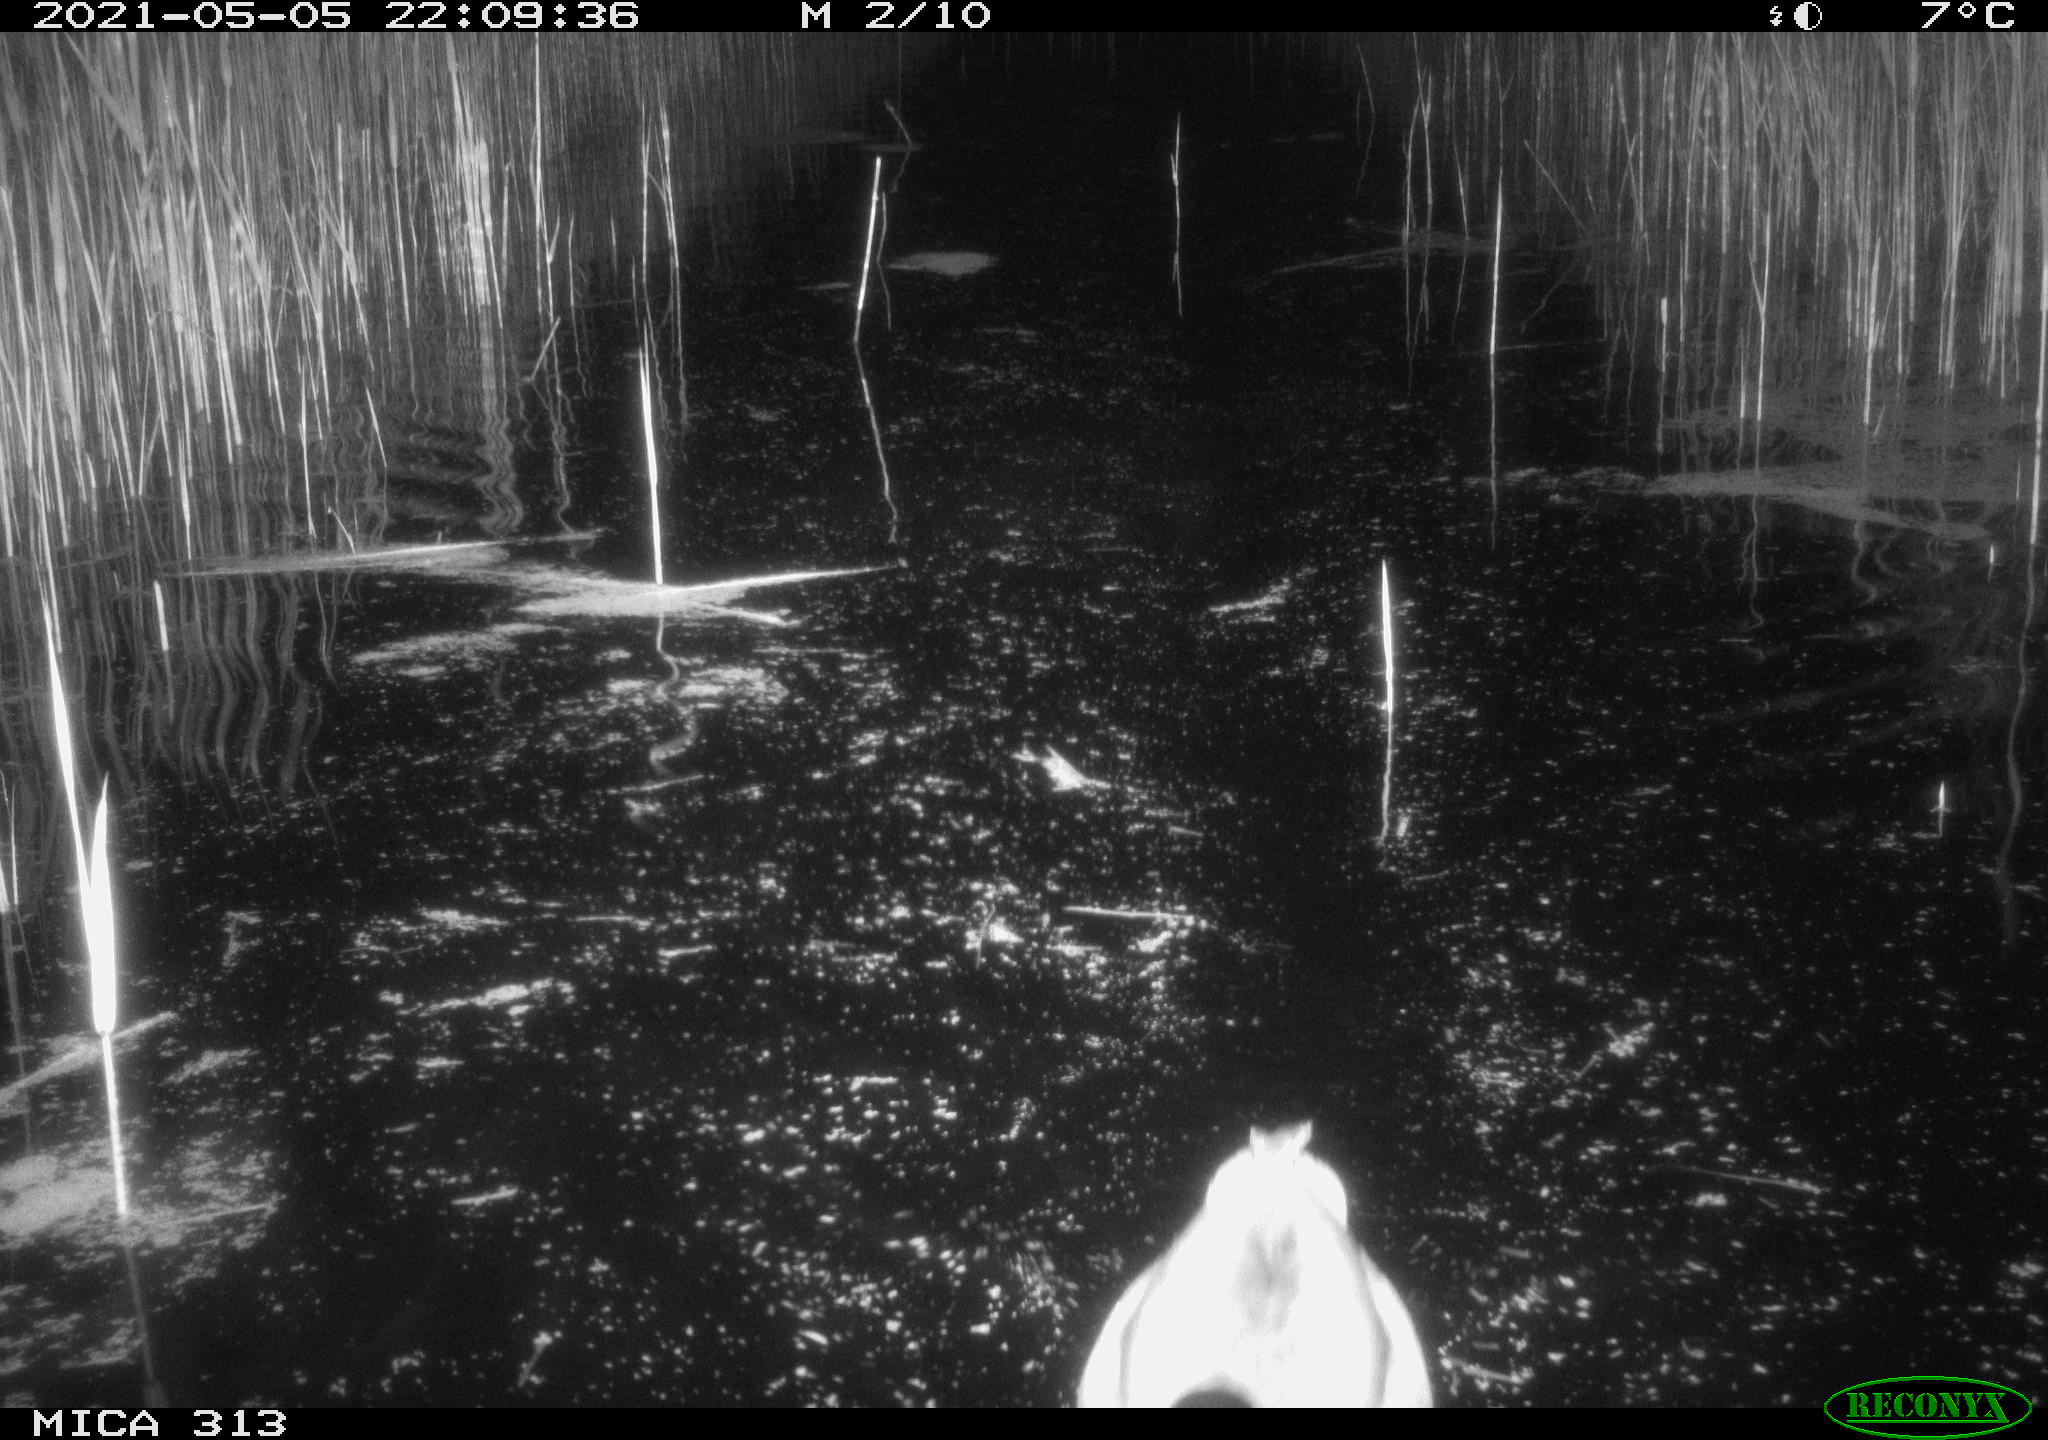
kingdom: Animalia
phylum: Chordata
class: Aves
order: Anseriformes
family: Anatidae
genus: Anas
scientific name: Anas platyrhynchos
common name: Mallard
